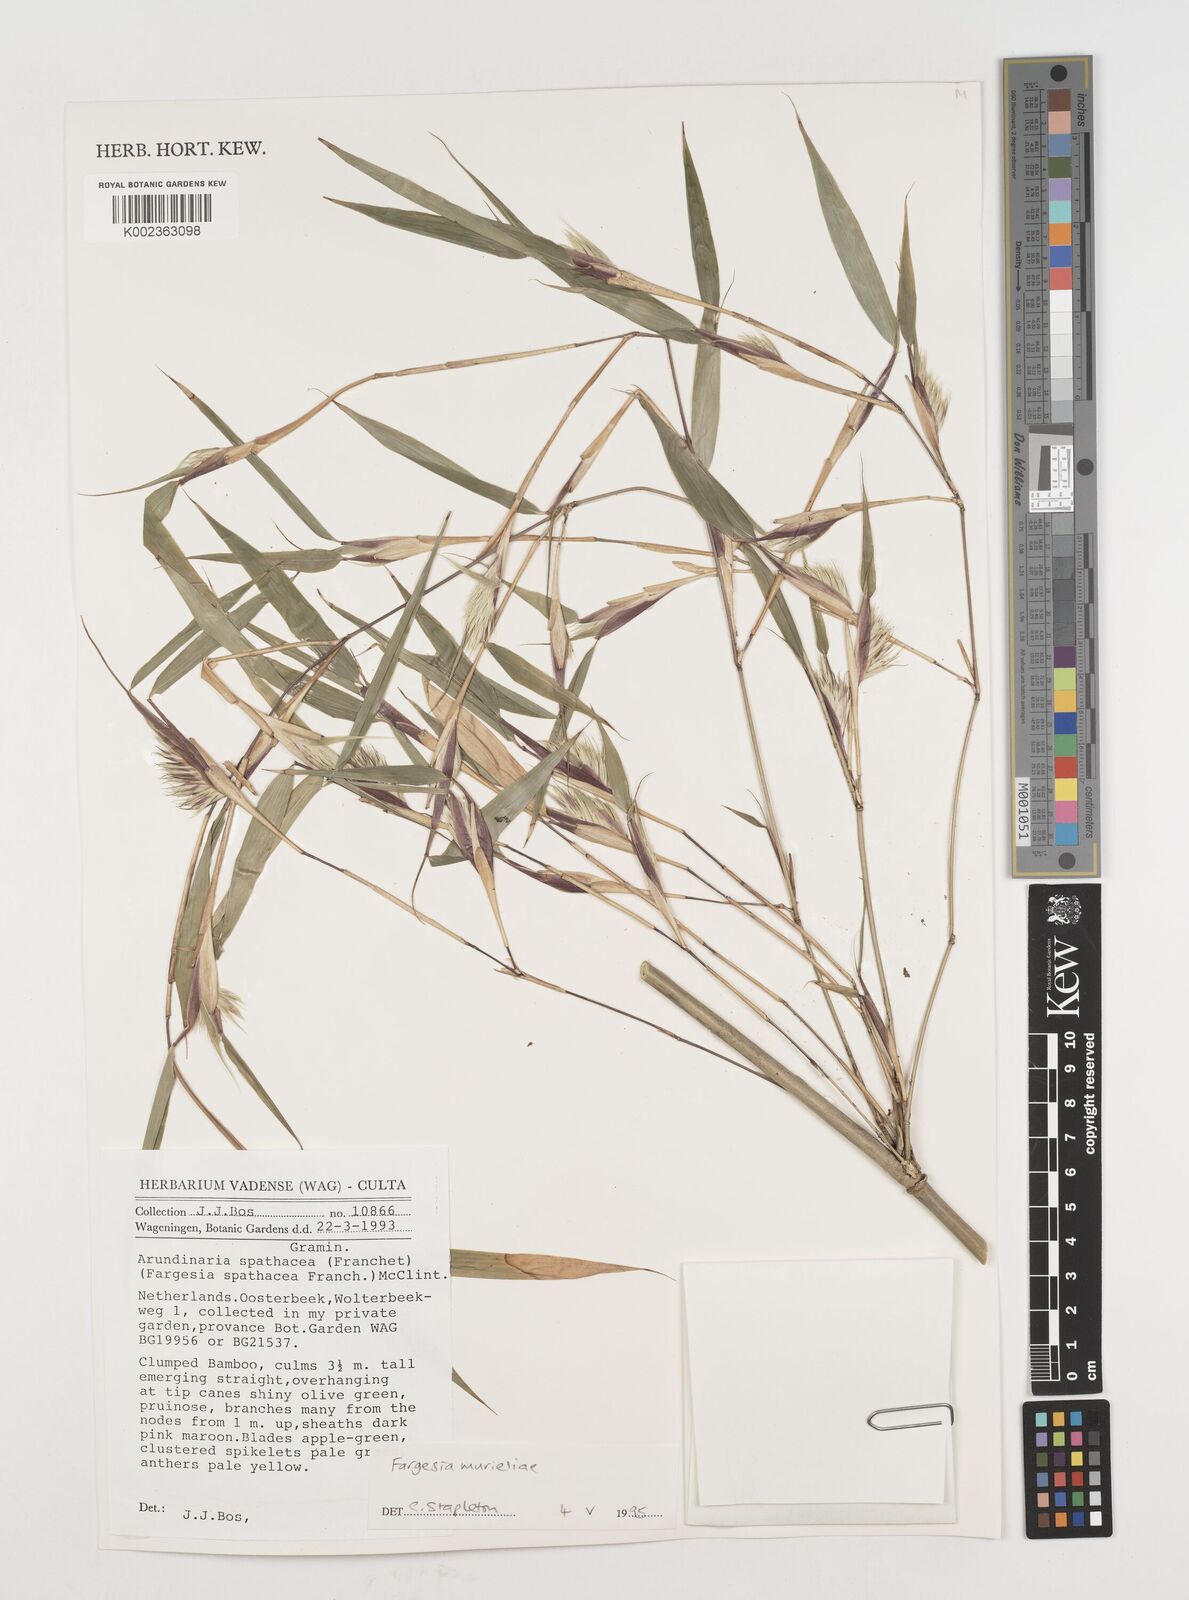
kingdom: Plantae
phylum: Tracheophyta
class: Liliopsida
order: Poales
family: Poaceae
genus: Fargesia
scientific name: Fargesia murielae
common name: Umbrella bamboo
